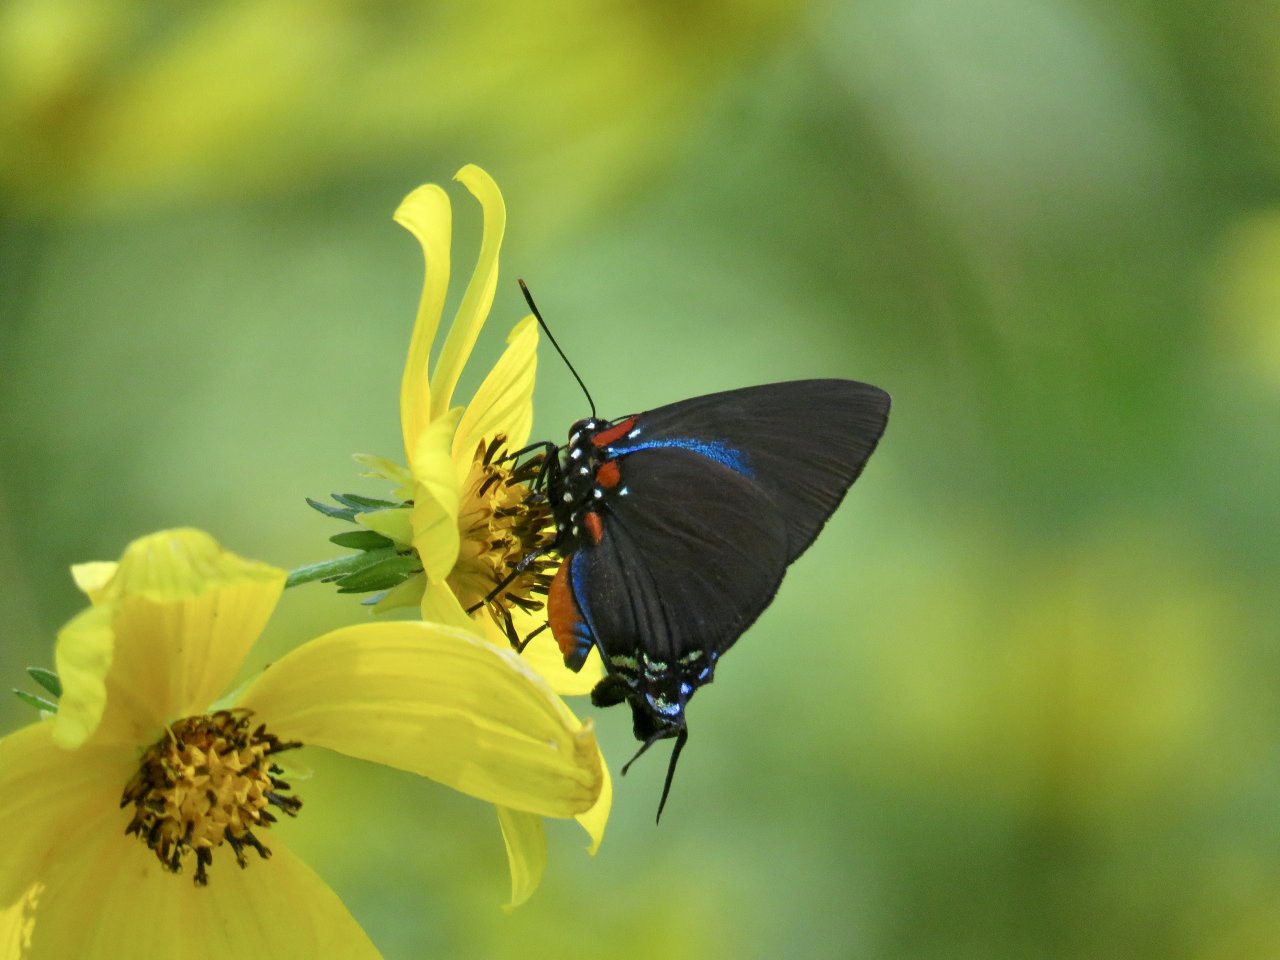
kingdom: Animalia
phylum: Arthropoda
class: Insecta
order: Lepidoptera
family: Lycaenidae
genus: Atlides
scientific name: Atlides halesus
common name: Great Purple Hairstreak
